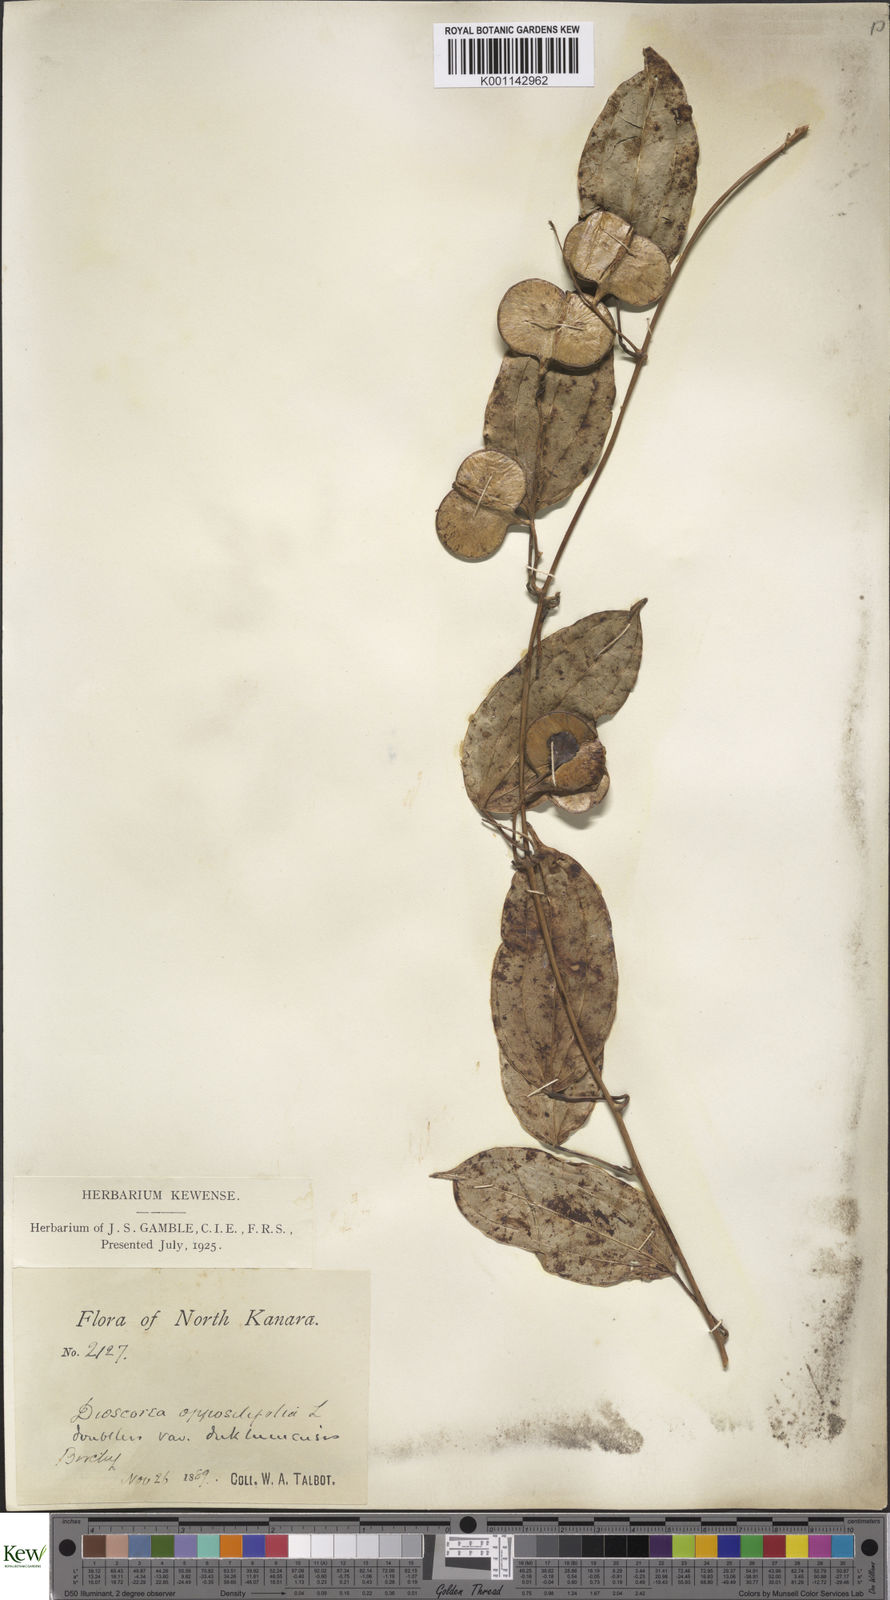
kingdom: Plantae
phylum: Tracheophyta
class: Liliopsida
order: Dioscoreales
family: Dioscoreaceae
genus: Dioscorea
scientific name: Dioscorea oppositifolia
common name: Chinese yam
